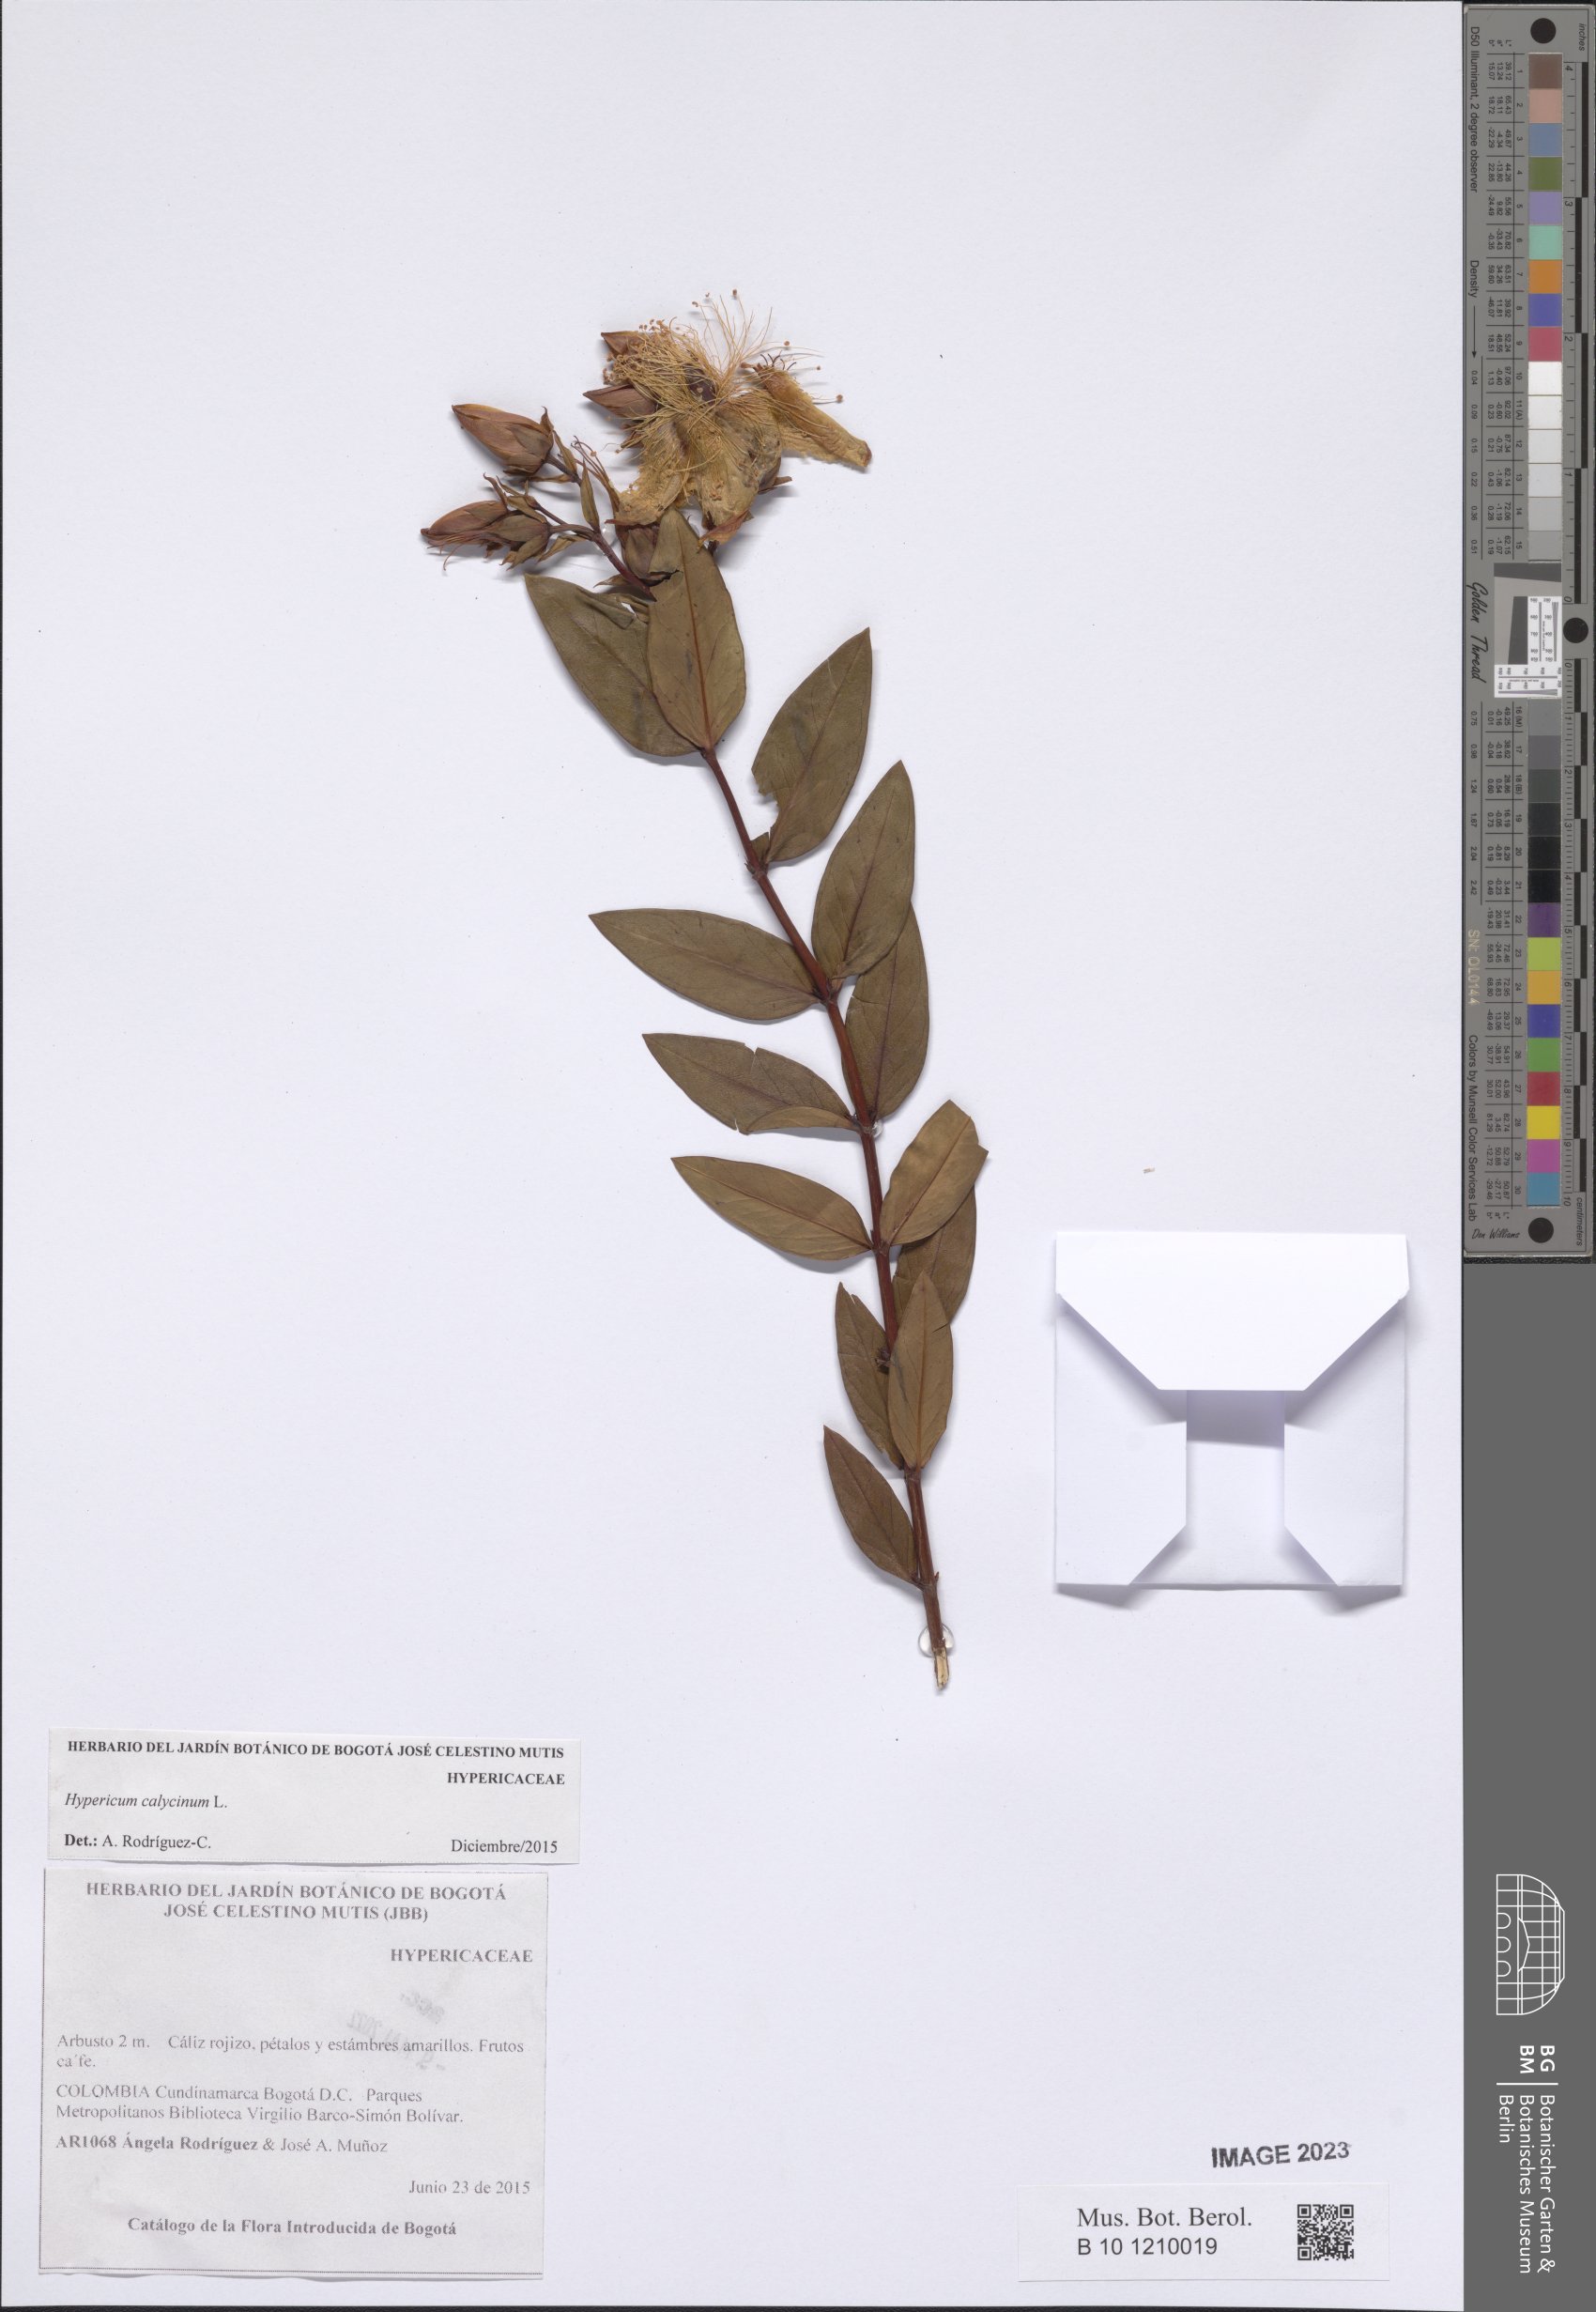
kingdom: Plantae
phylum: Tracheophyta
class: Magnoliopsida
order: Malpighiales
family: Hypericaceae
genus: Hypericum
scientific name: Hypericum calycinum
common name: Rose-of-sharon
